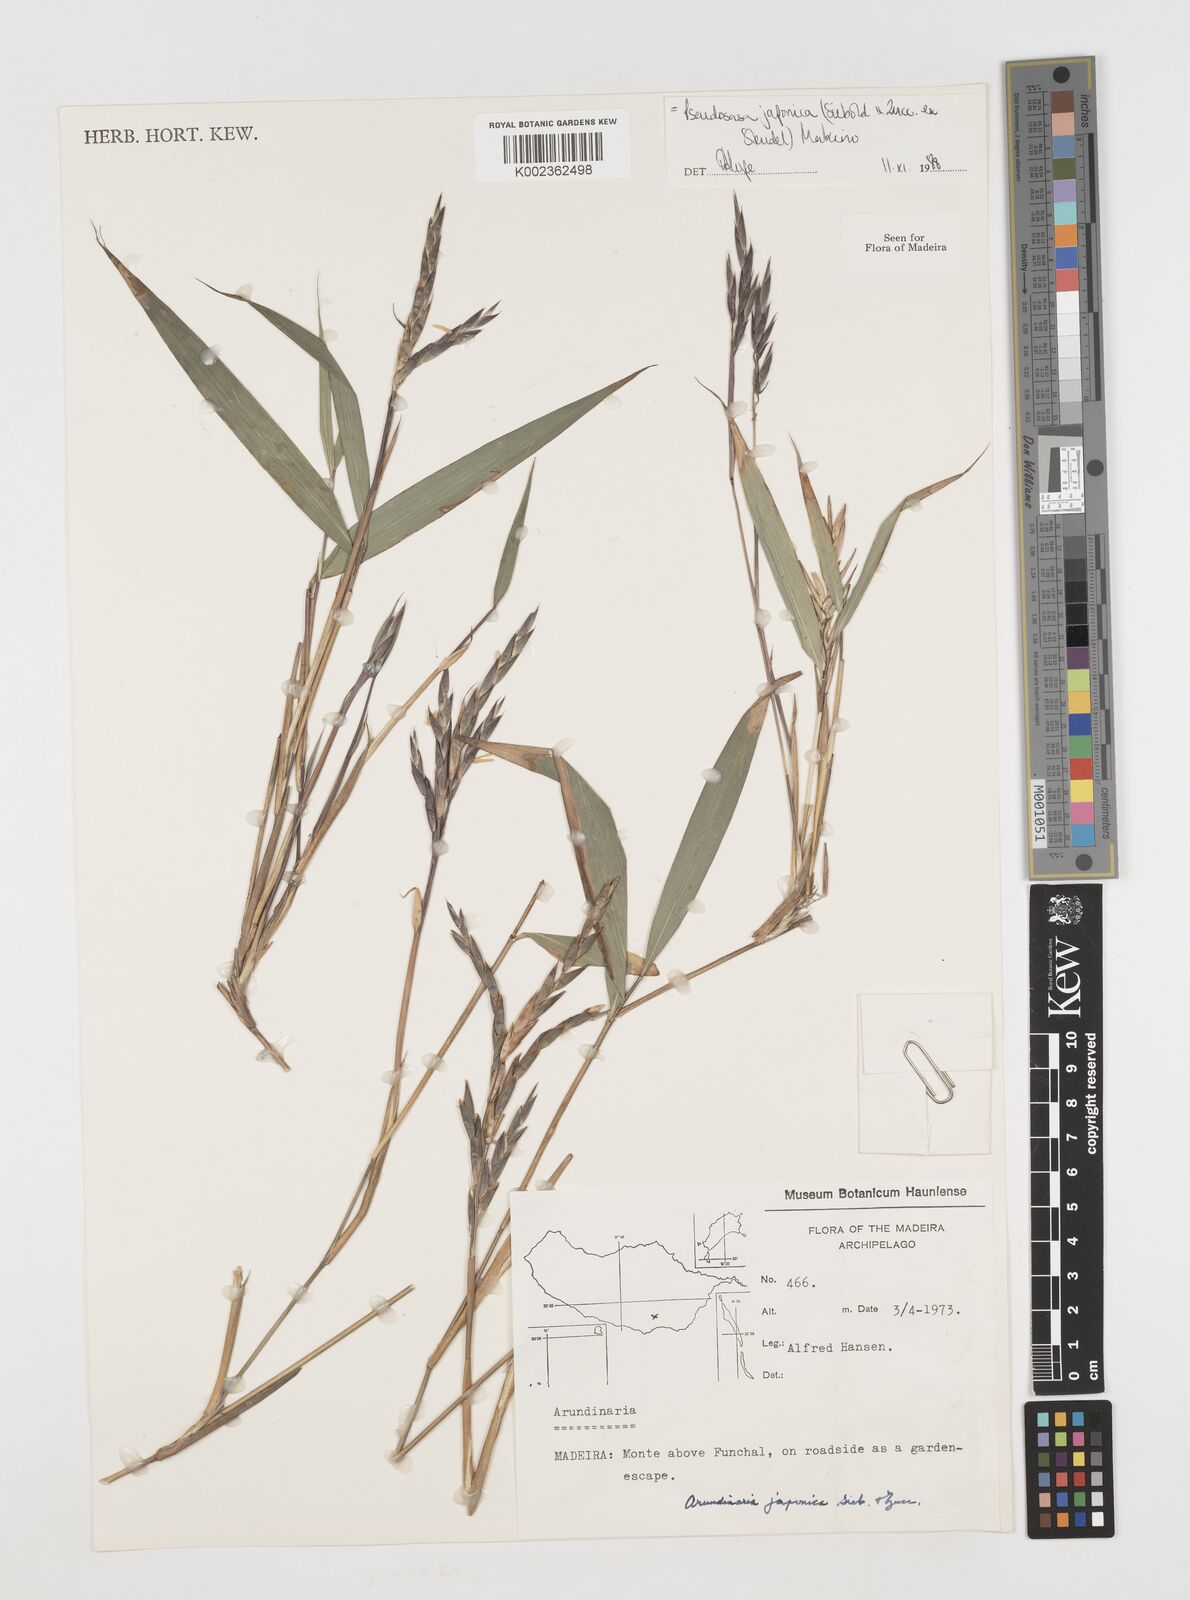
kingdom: Plantae
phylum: Tracheophyta
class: Liliopsida
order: Poales
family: Poaceae
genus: Pseudosasa
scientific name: Pseudosasa japonica
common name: Arrow bamboo
